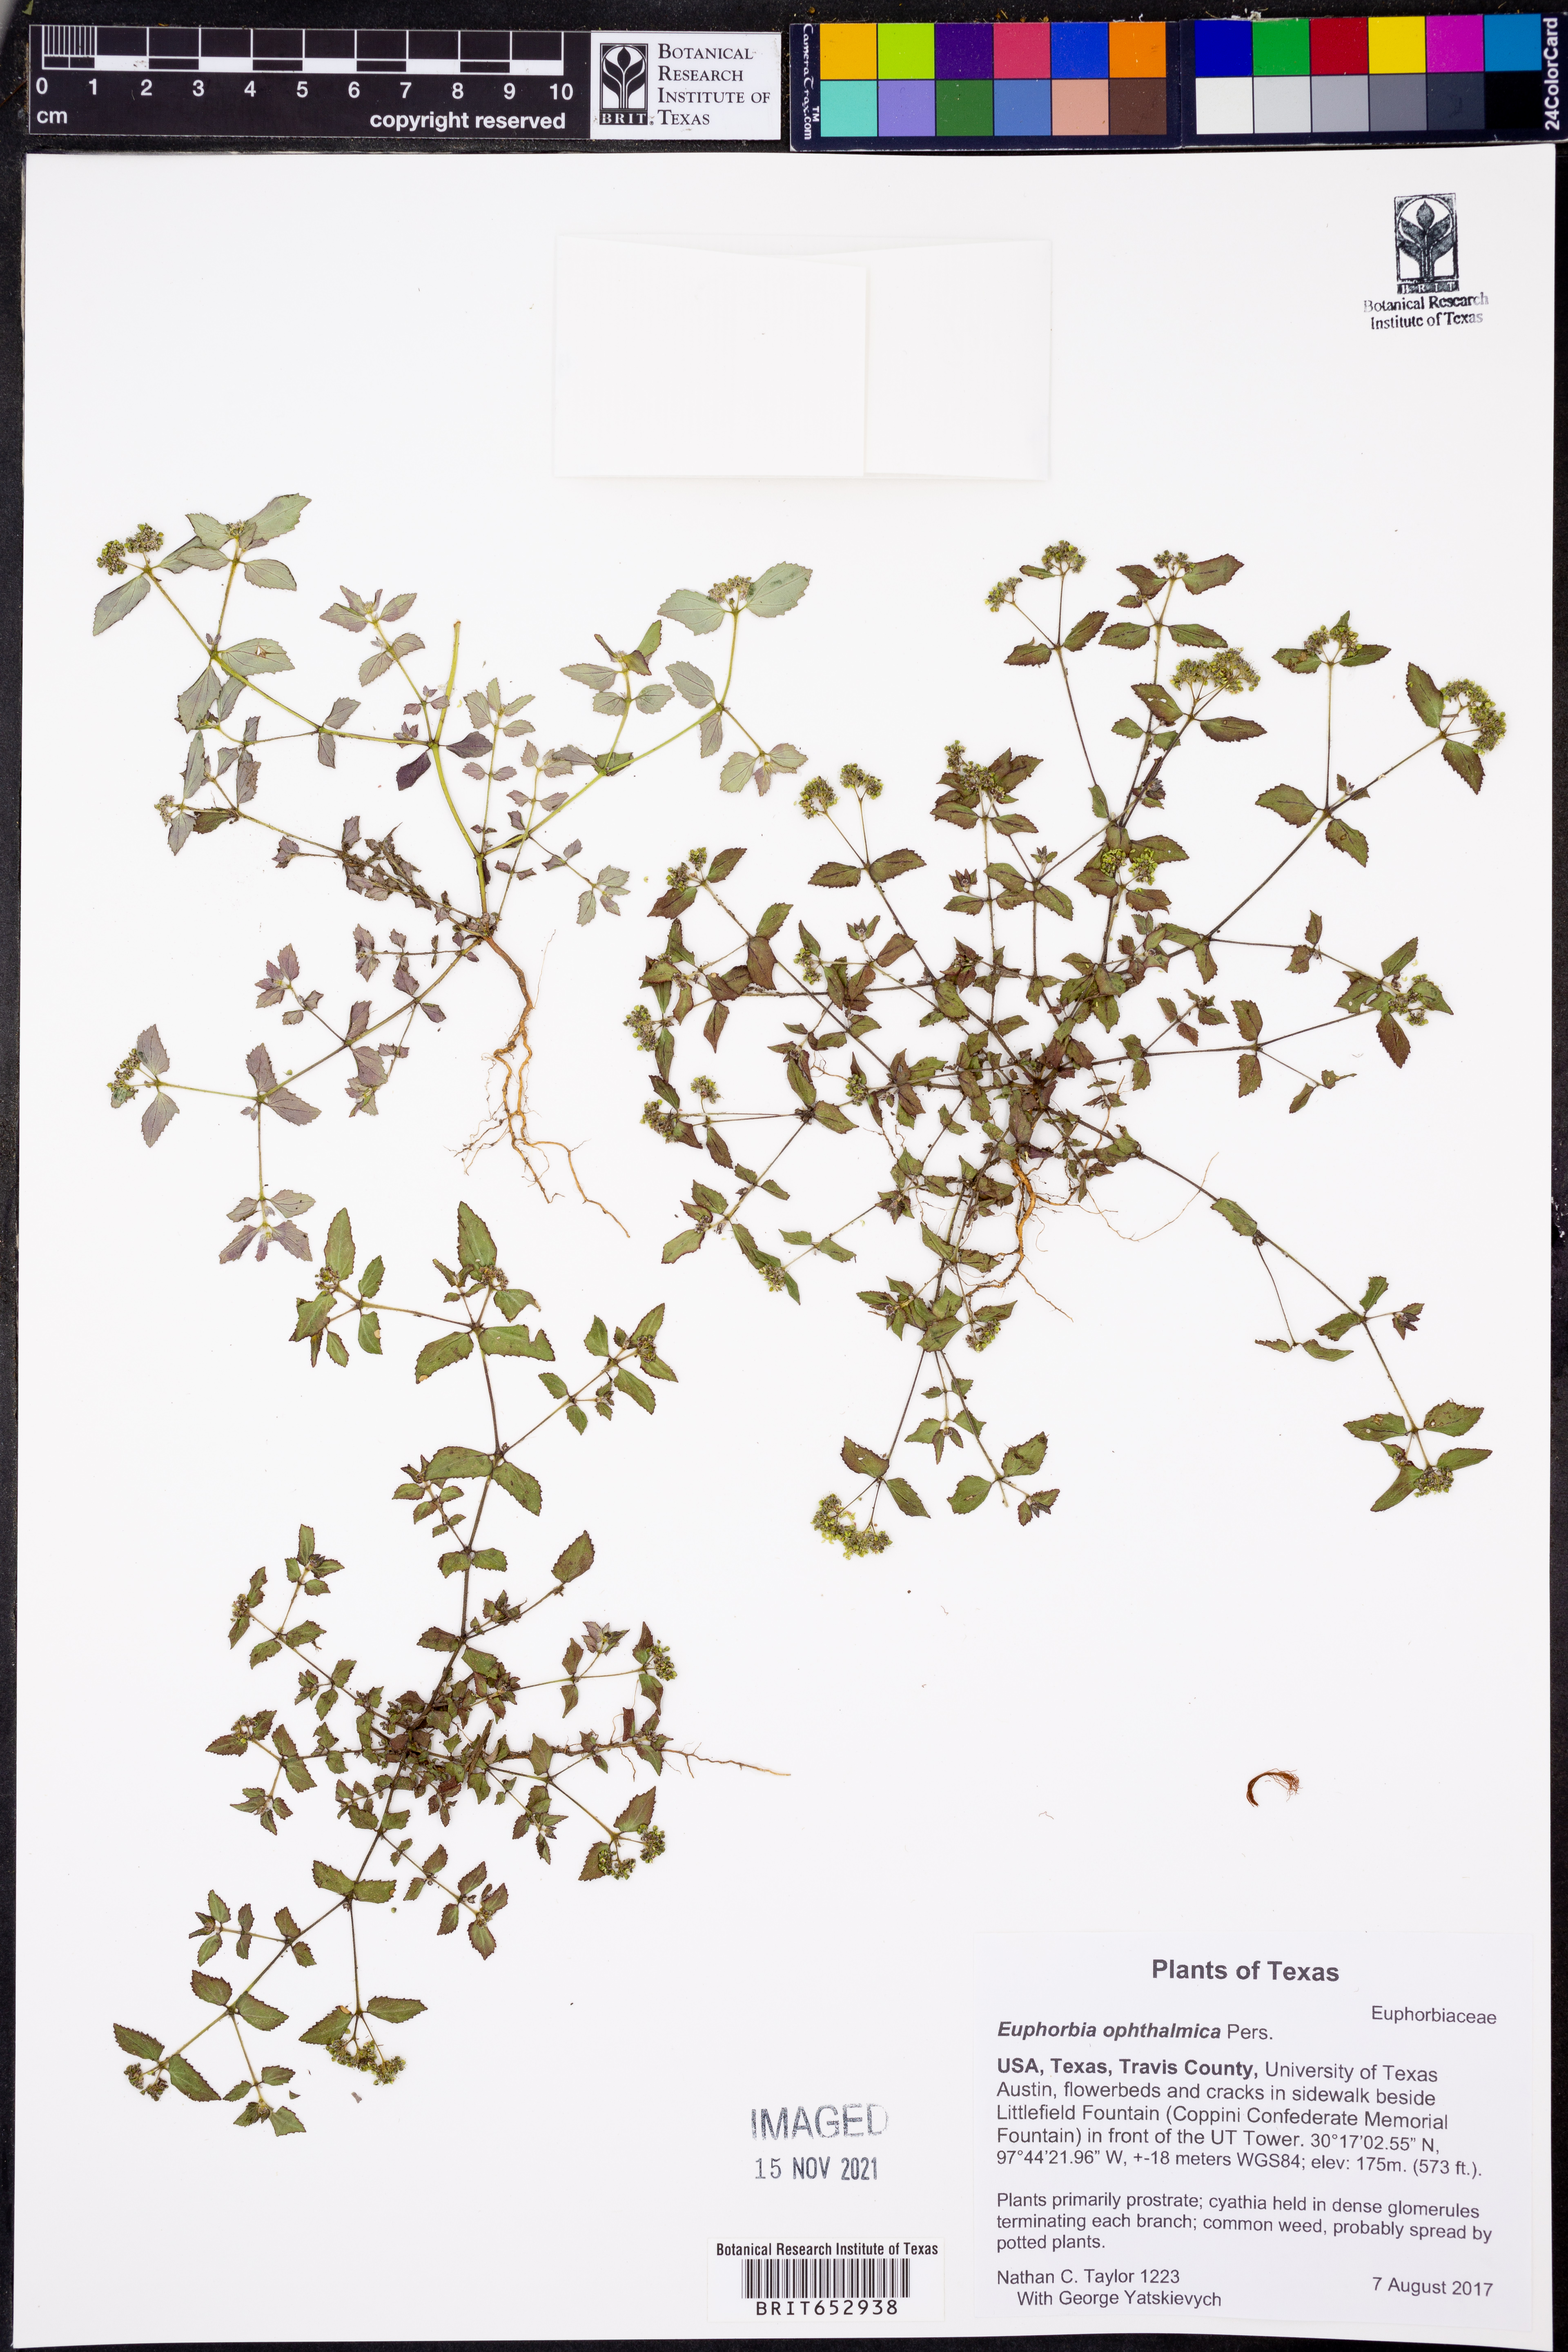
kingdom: Plantae
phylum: Tracheophyta
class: Magnoliopsida
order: Malpighiales
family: Euphorbiaceae
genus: Euphorbia
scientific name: Euphorbia ophthalmica
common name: Florida hammock sandmat
